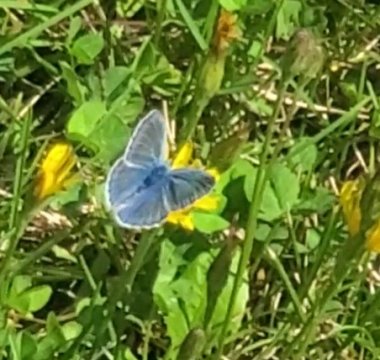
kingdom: Animalia
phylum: Arthropoda
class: Insecta
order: Lepidoptera
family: Lycaenidae
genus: Polyommatus
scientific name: Polyommatus icarus
